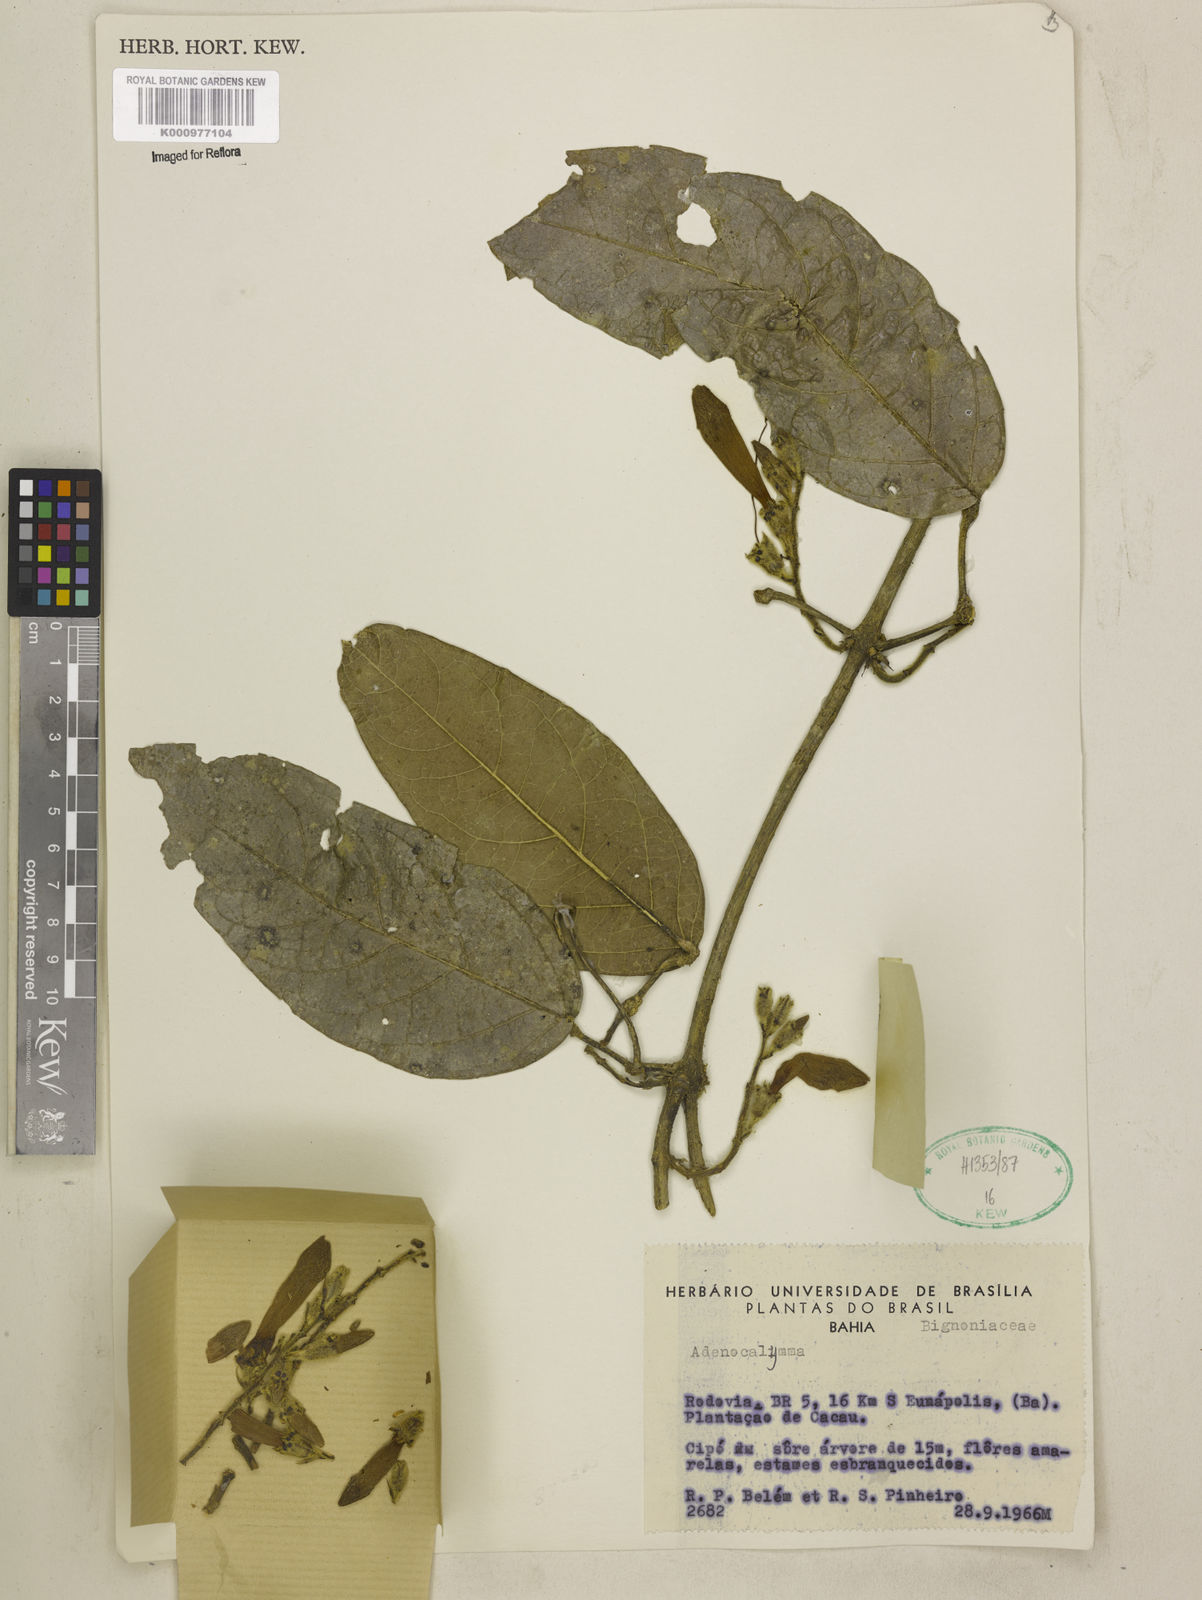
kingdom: Plantae
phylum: Tracheophyta
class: Magnoliopsida
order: Lamiales
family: Bignoniaceae
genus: Adenocalymma
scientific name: Adenocalymma
